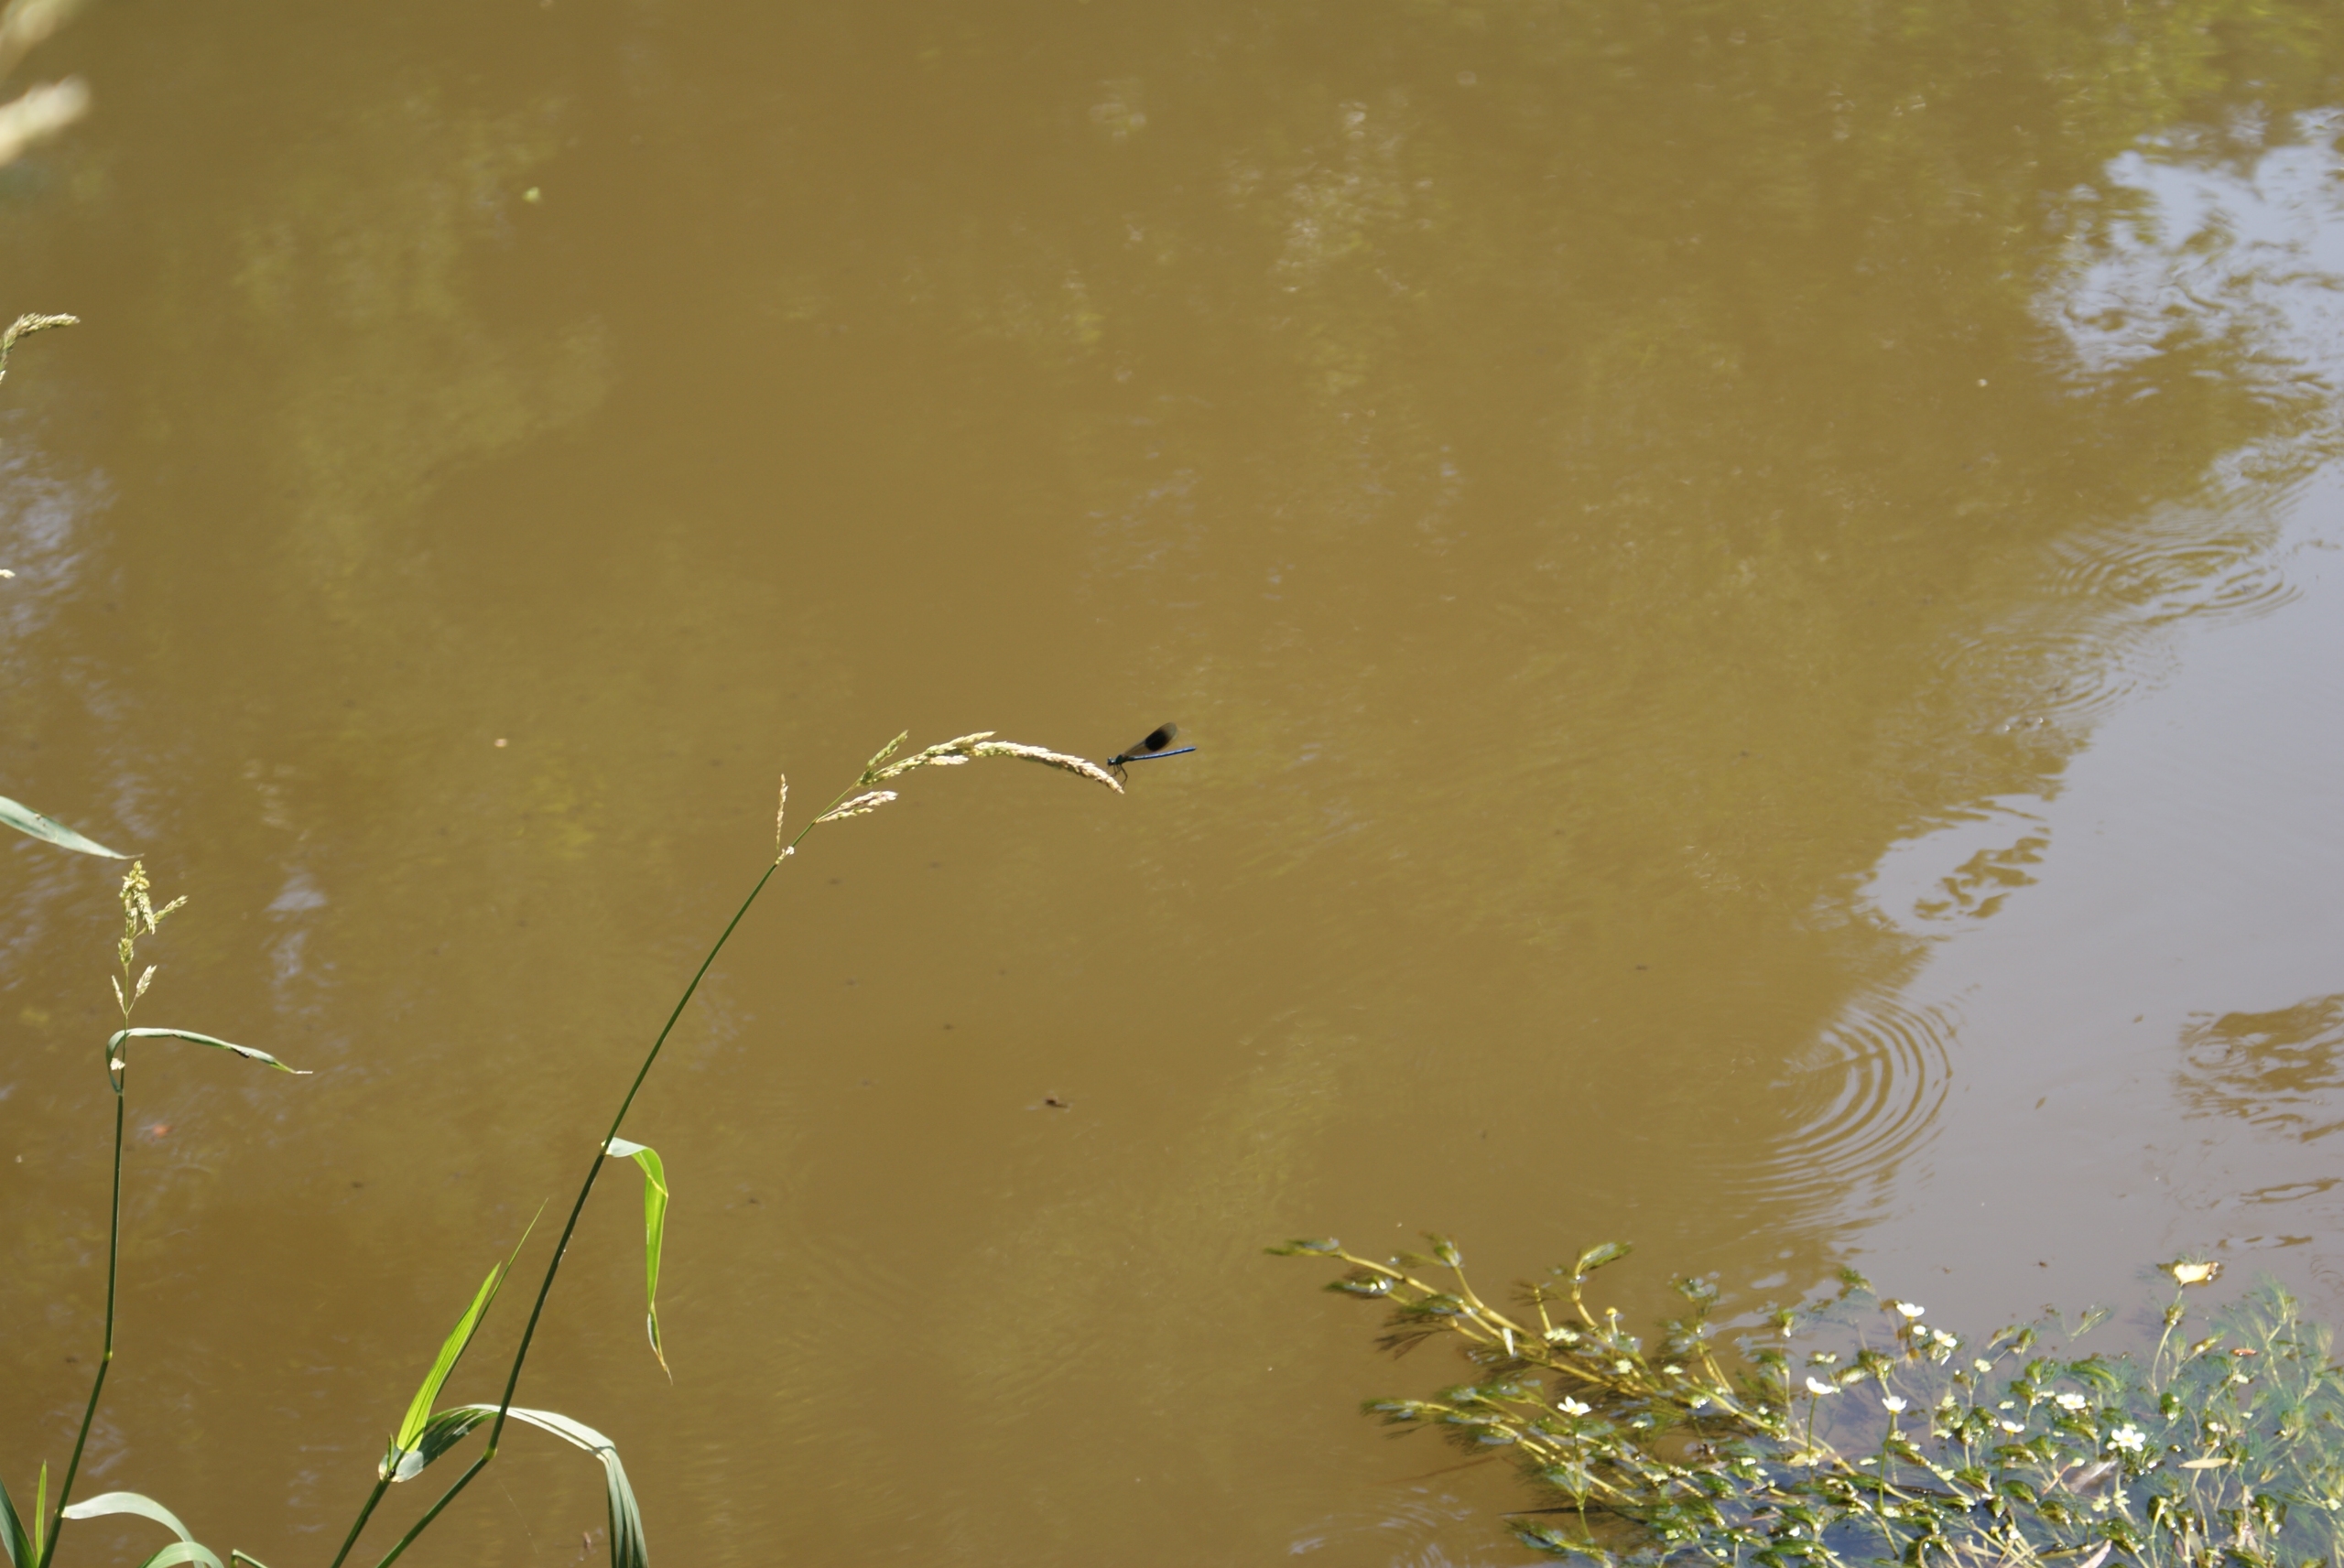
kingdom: Animalia
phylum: Arthropoda
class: Insecta
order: Odonata
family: Calopterygidae
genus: Calopteryx
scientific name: Calopteryx splendens
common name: Blåbåndet pragtvandnymfe
